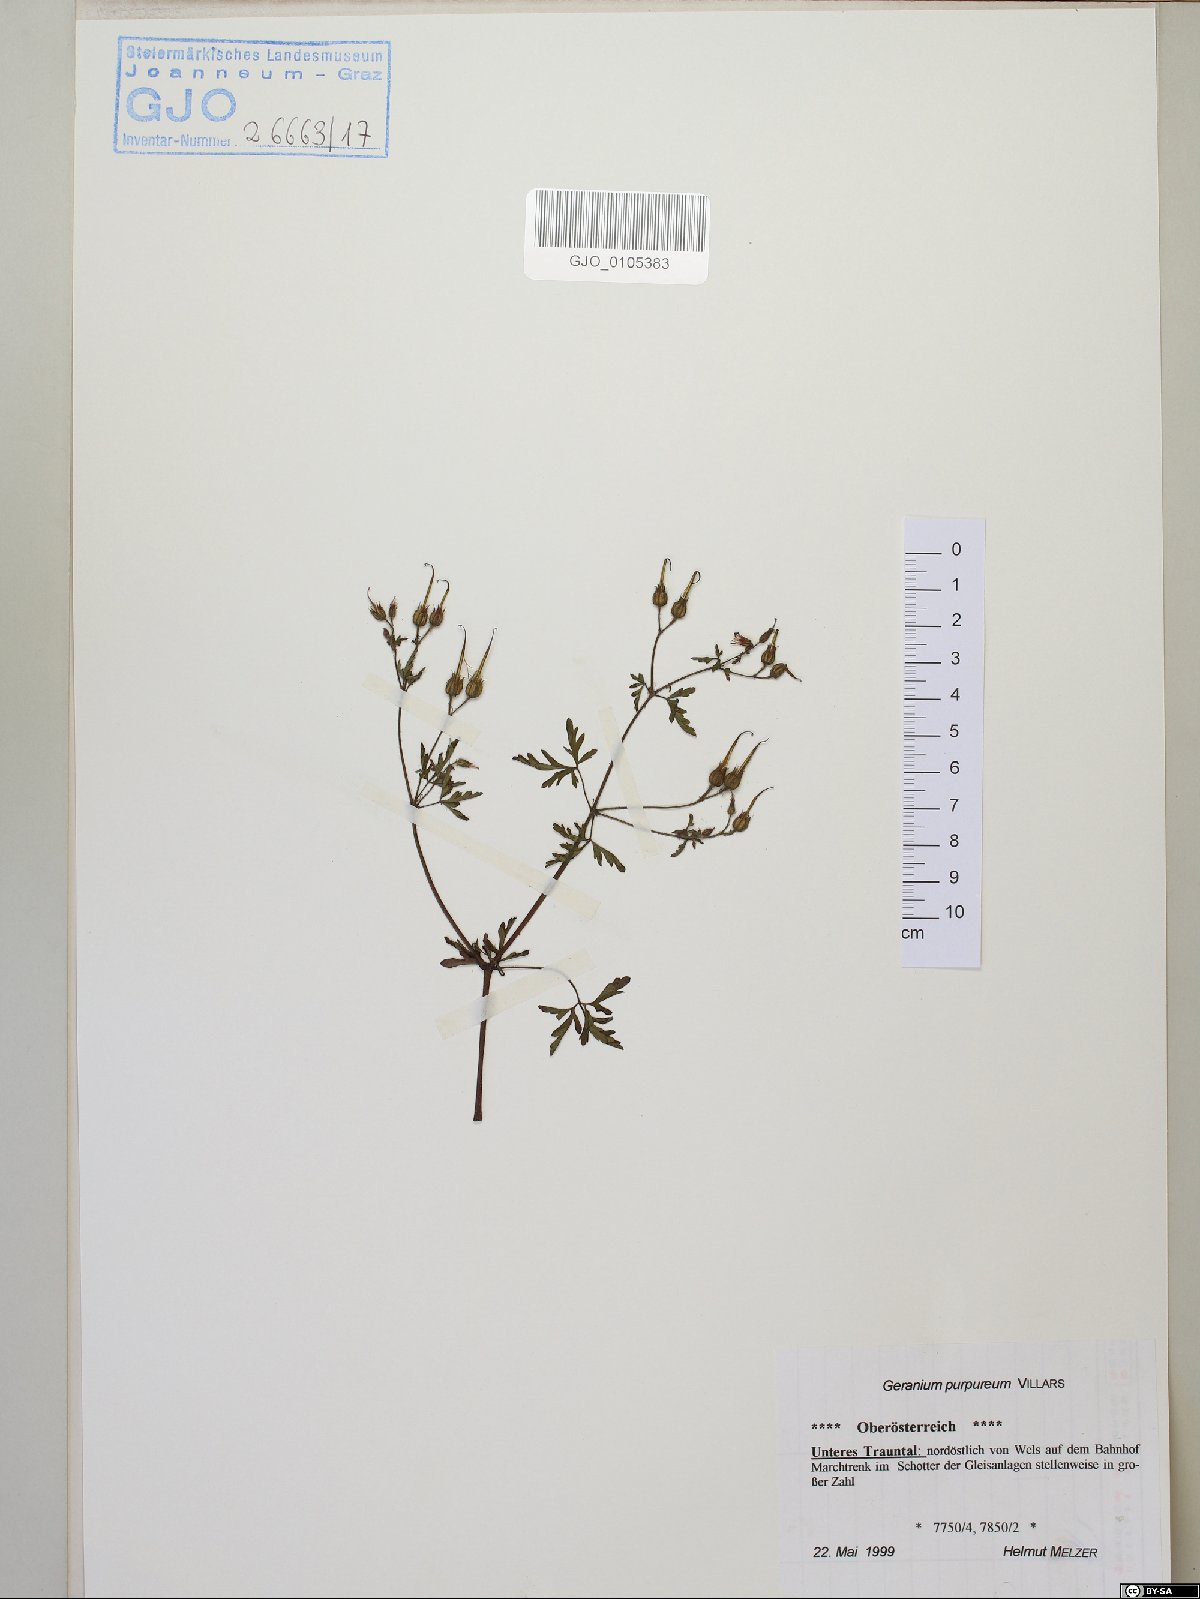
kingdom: Plantae
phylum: Tracheophyta
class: Magnoliopsida
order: Geraniales
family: Geraniaceae
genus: Geranium
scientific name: Geranium purpureum
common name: Little-robin
